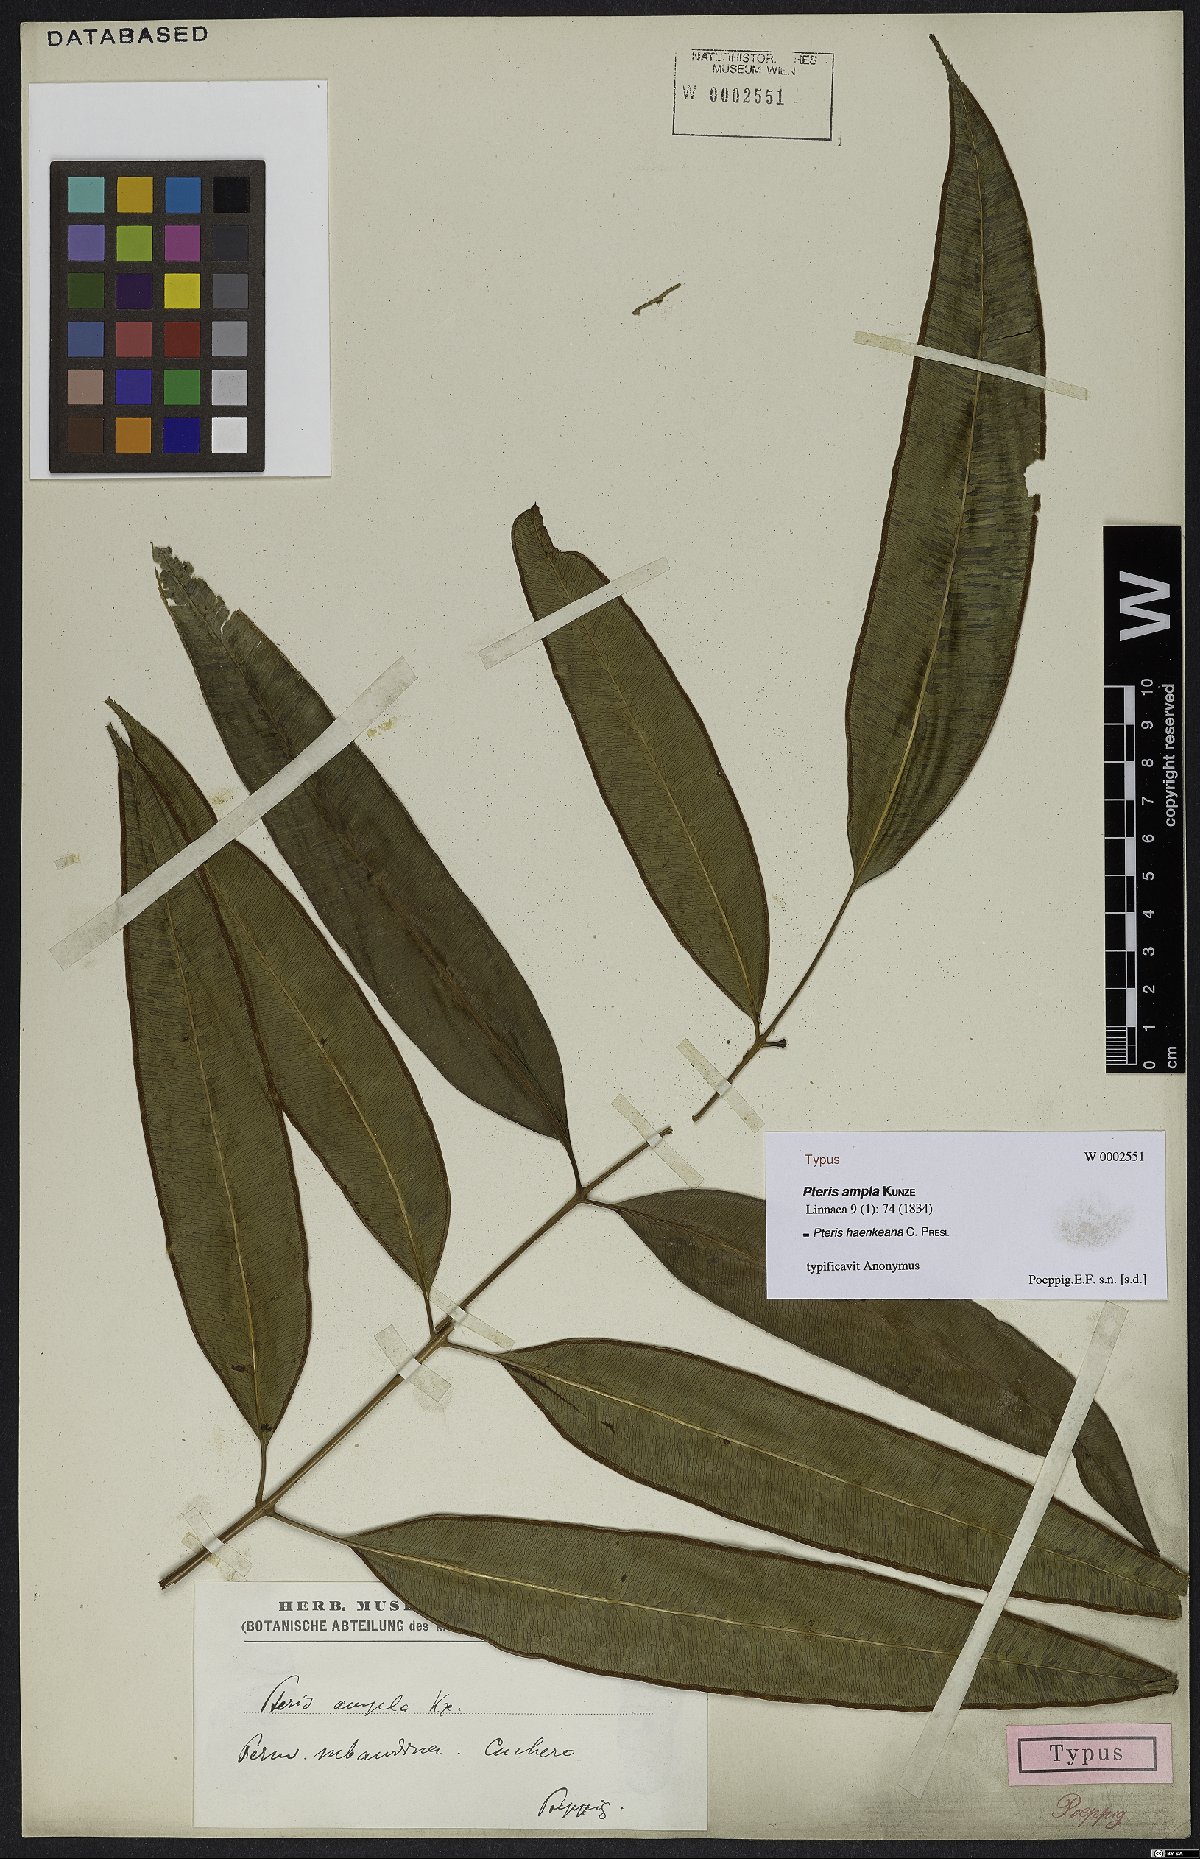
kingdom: Plantae
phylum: Tracheophyta
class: Polypodiopsida
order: Polypodiales
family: Pteridaceae
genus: Pteris
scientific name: Pteris haenkeana
